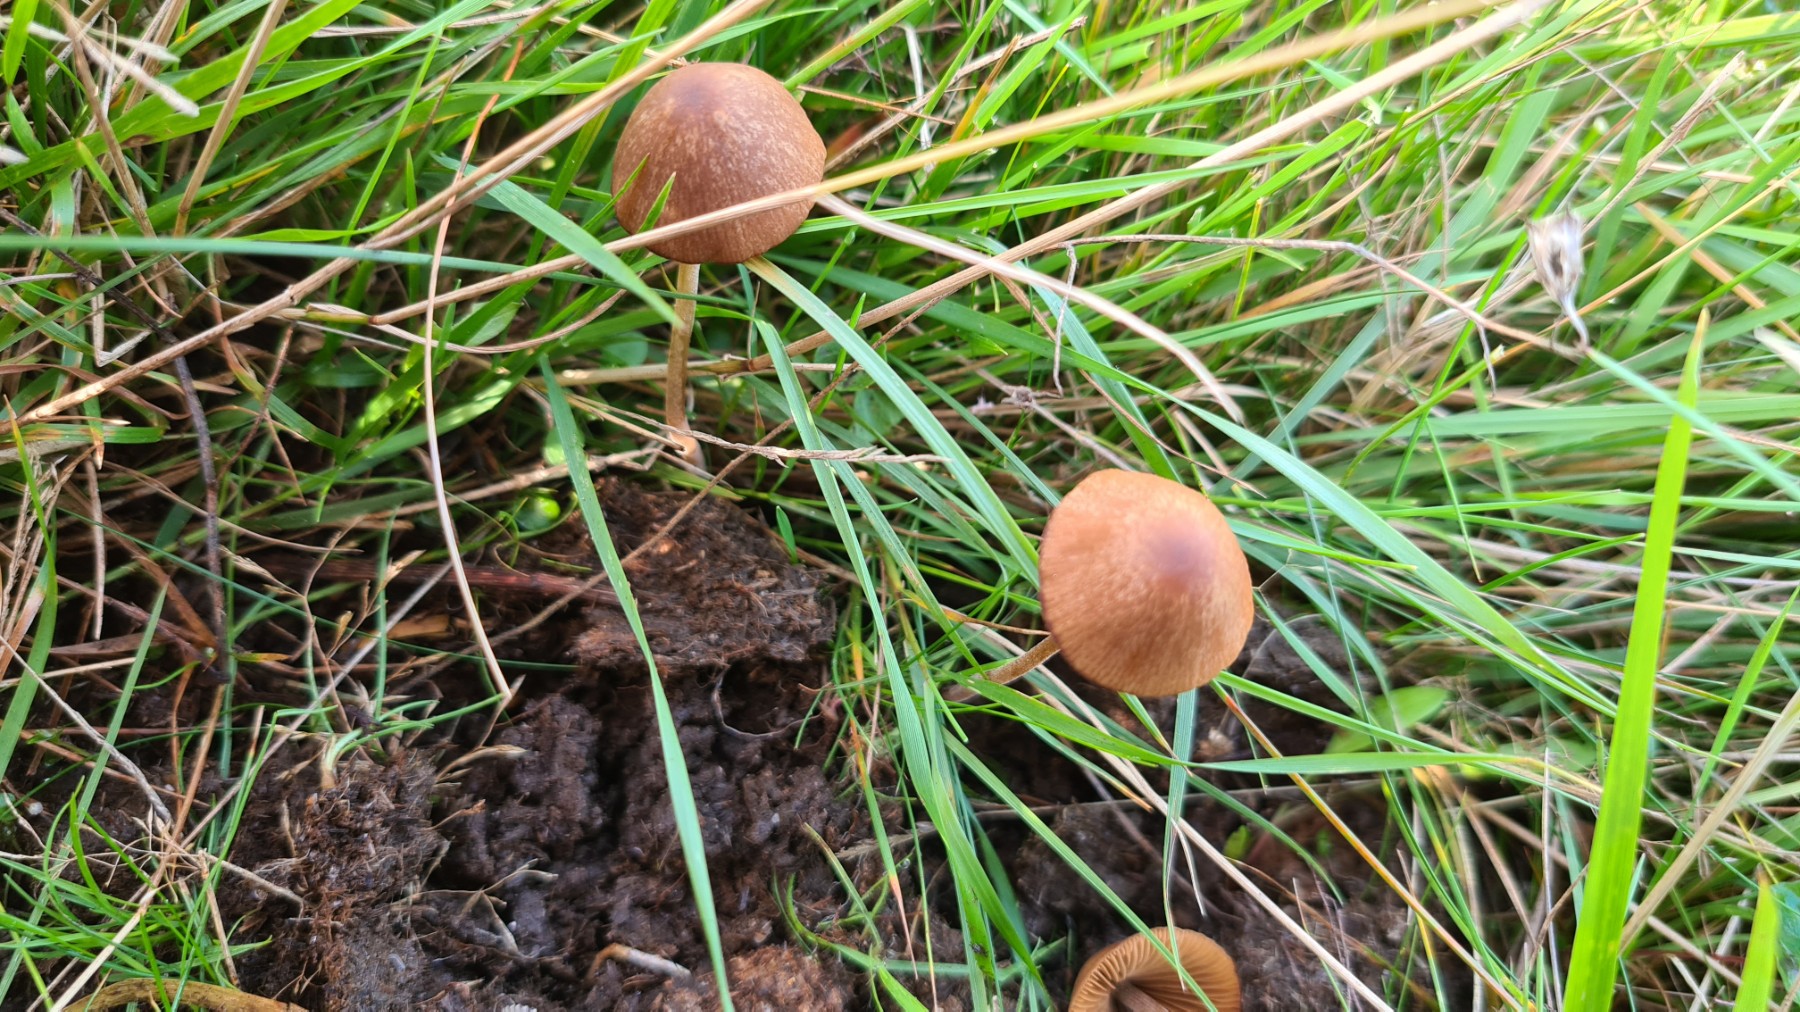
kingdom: Fungi
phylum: Basidiomycota
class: Agaricomycetes
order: Agaricales
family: Bolbitiaceae
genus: Conocybe
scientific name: Conocybe
